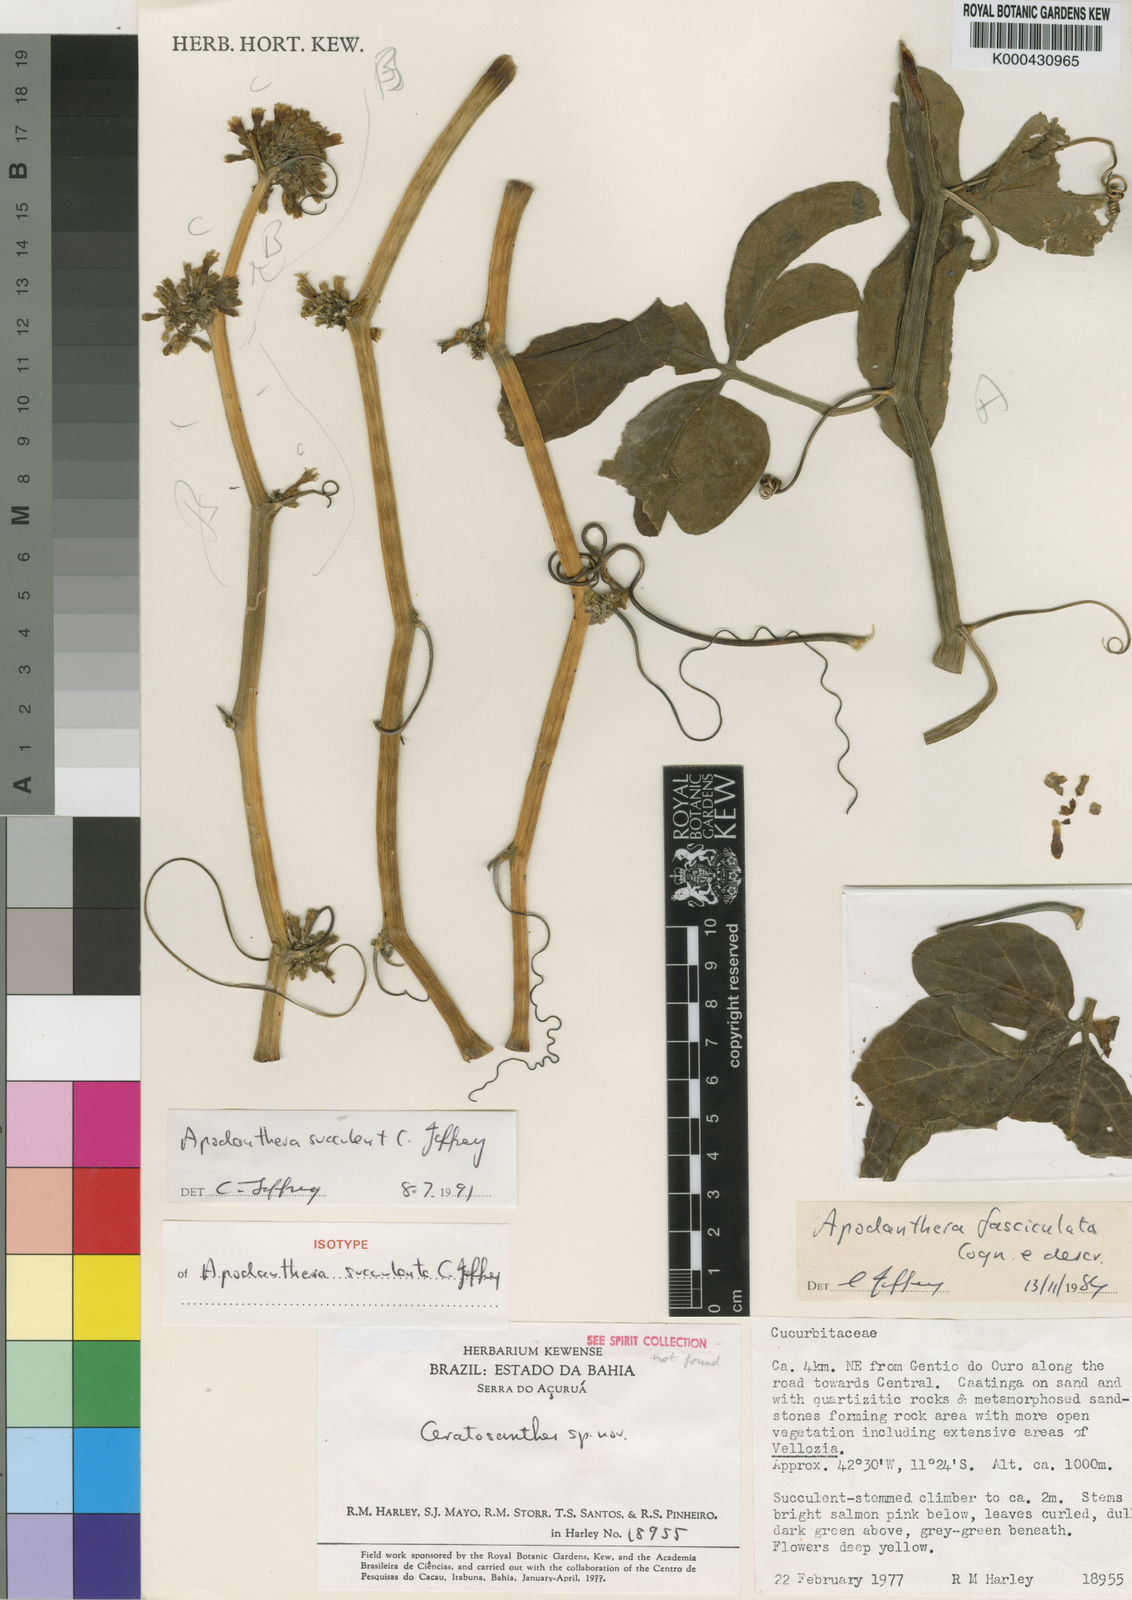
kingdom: Plantae
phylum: Tracheophyta
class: Magnoliopsida
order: Cucurbitales
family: Cucurbitaceae
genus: Apodanthera
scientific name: Apodanthera villosa
